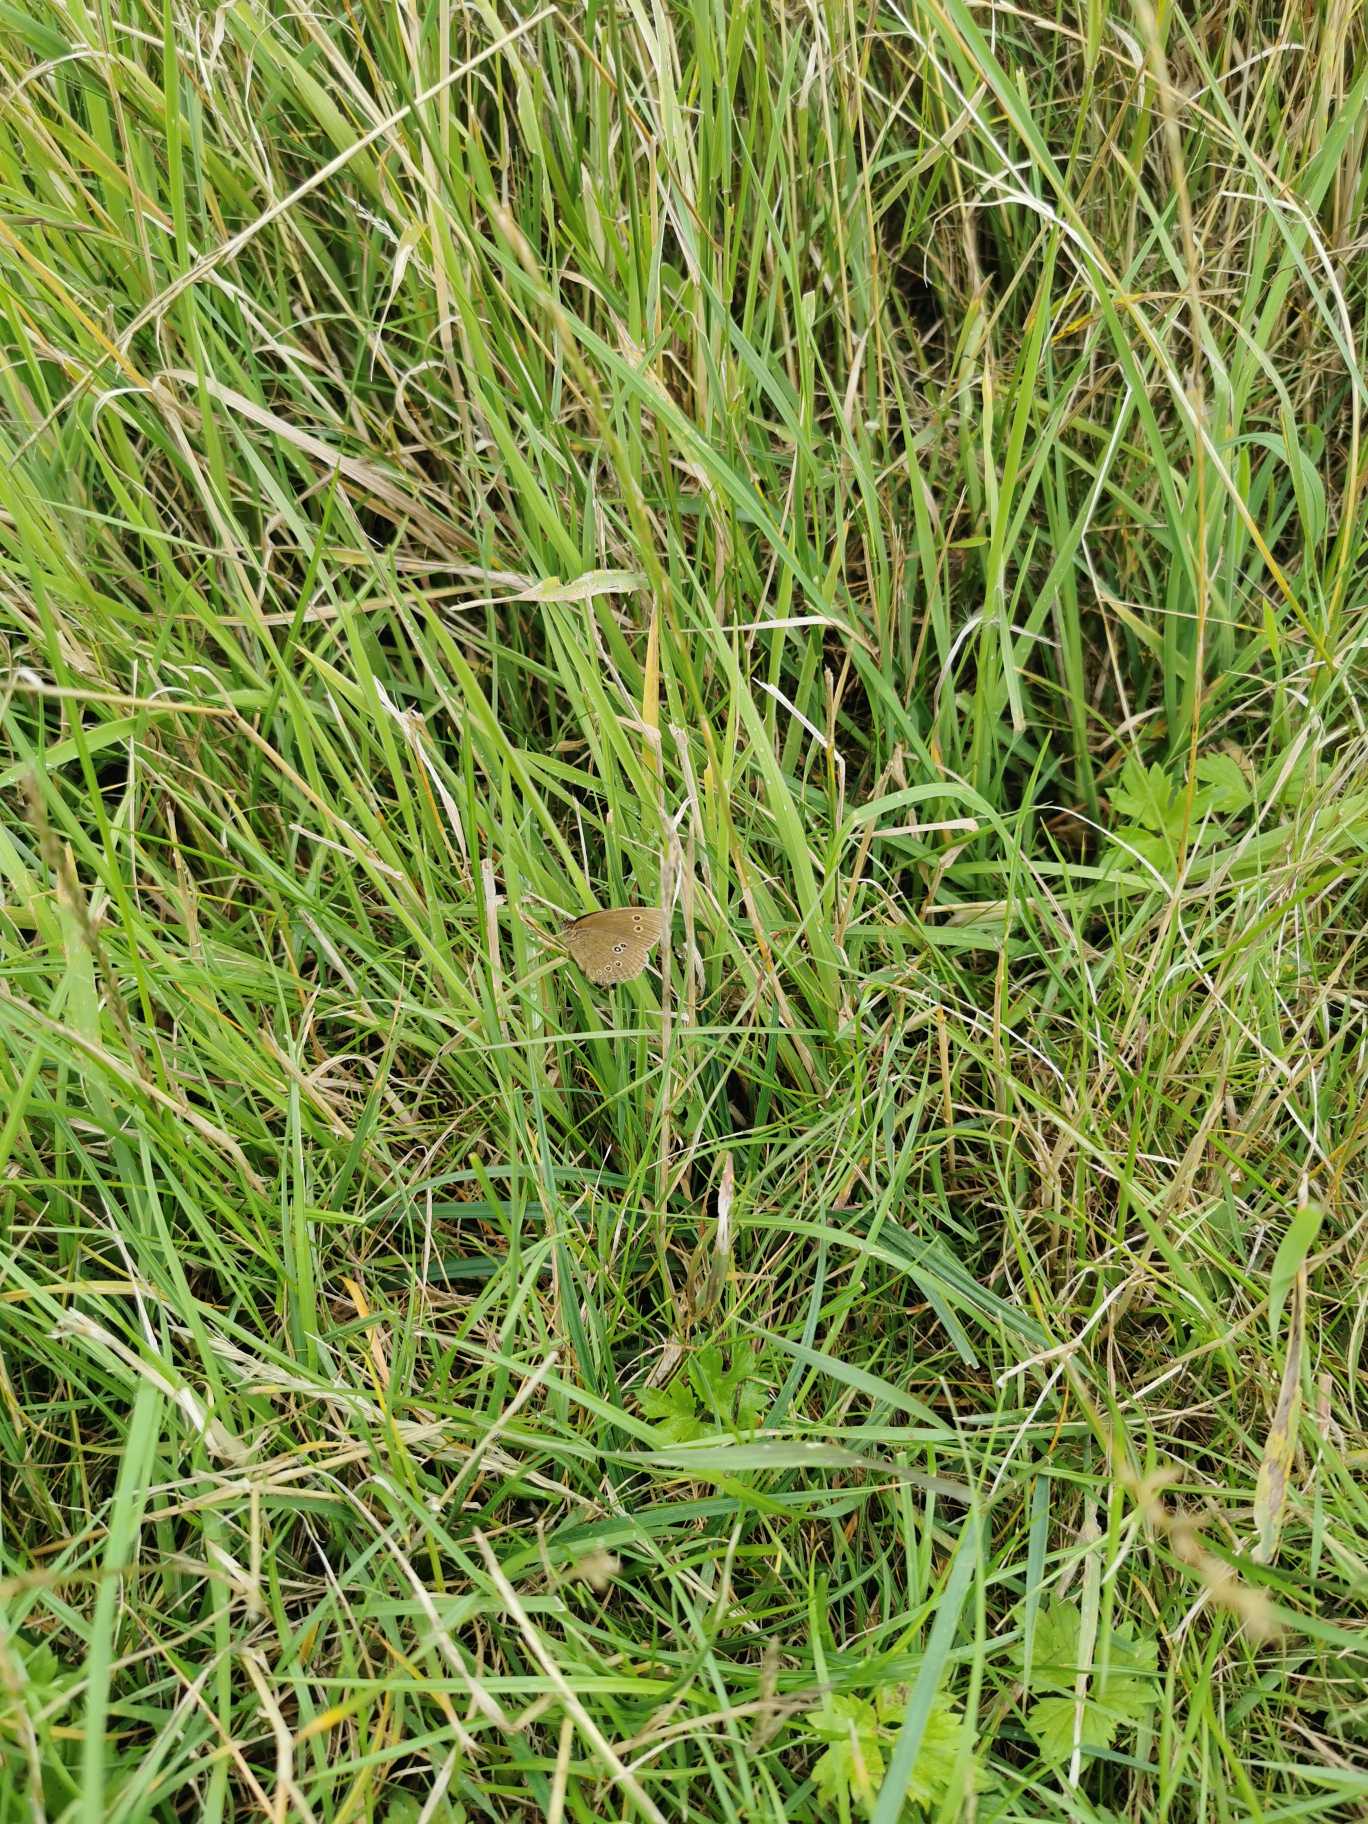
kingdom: Animalia
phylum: Arthropoda
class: Insecta
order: Lepidoptera
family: Nymphalidae
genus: Aphantopus
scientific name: Aphantopus hyperantus
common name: Engrandøje
